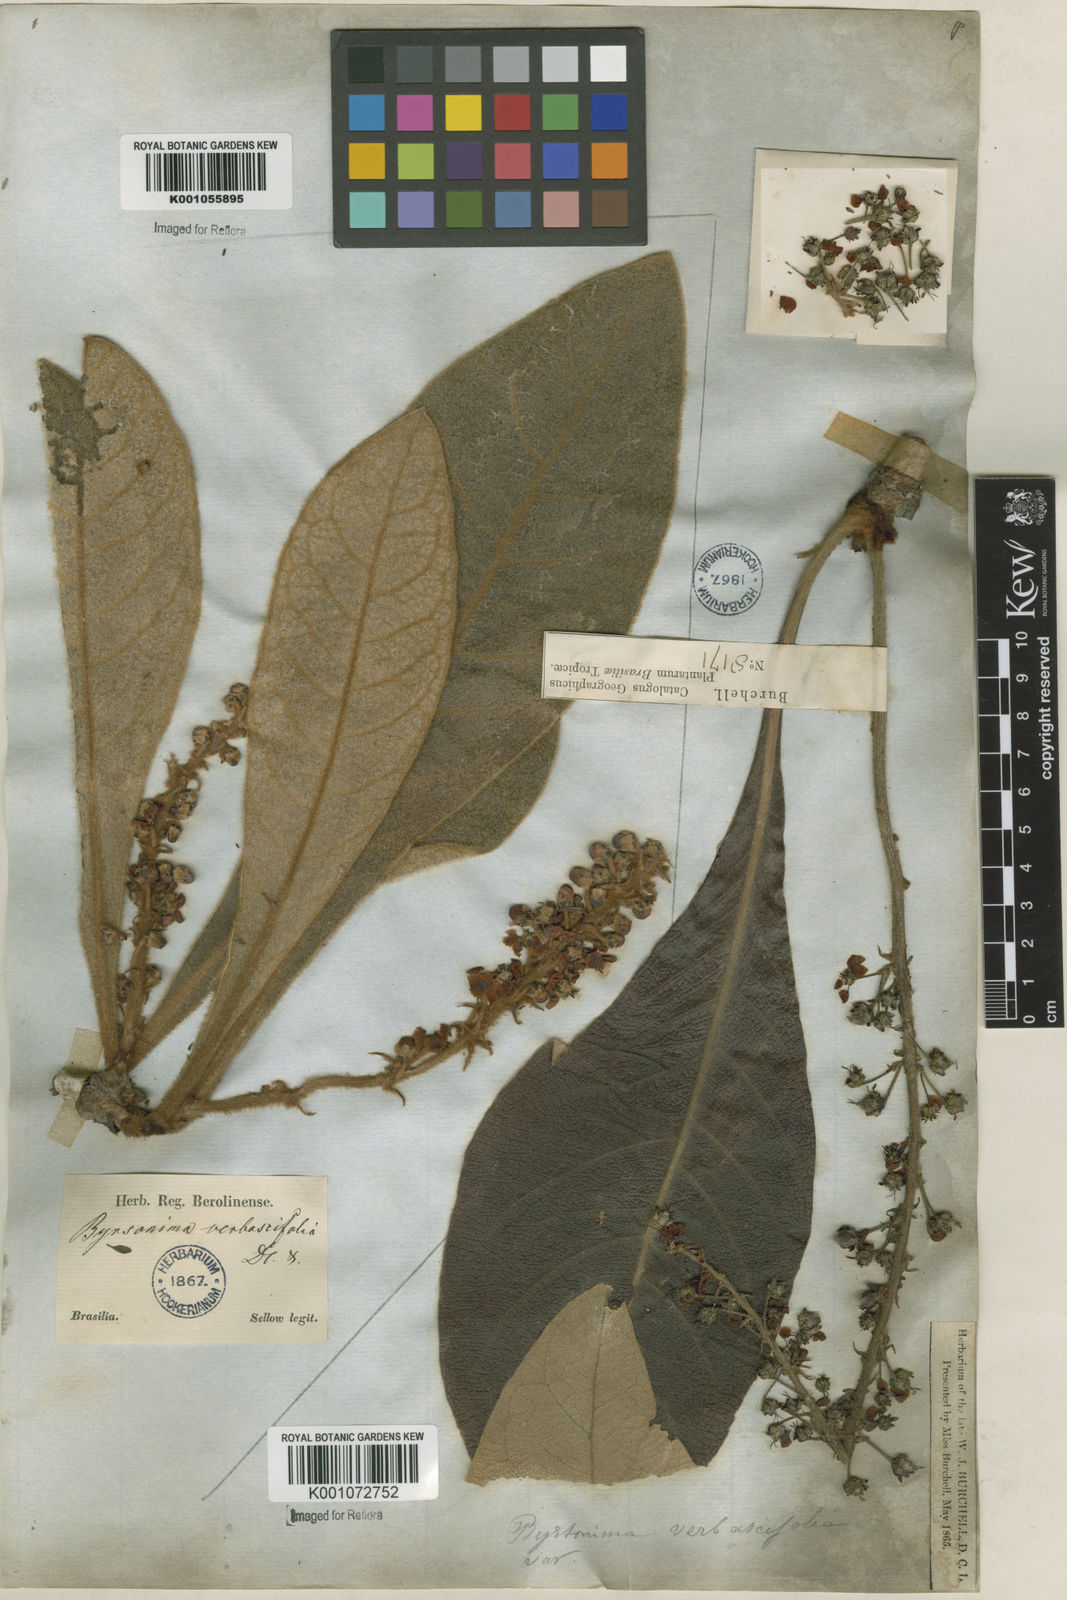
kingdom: Plantae
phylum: Tracheophyta
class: Magnoliopsida
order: Malpighiales
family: Malpighiaceae
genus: Byrsonima
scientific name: Byrsonima verbascifolia
